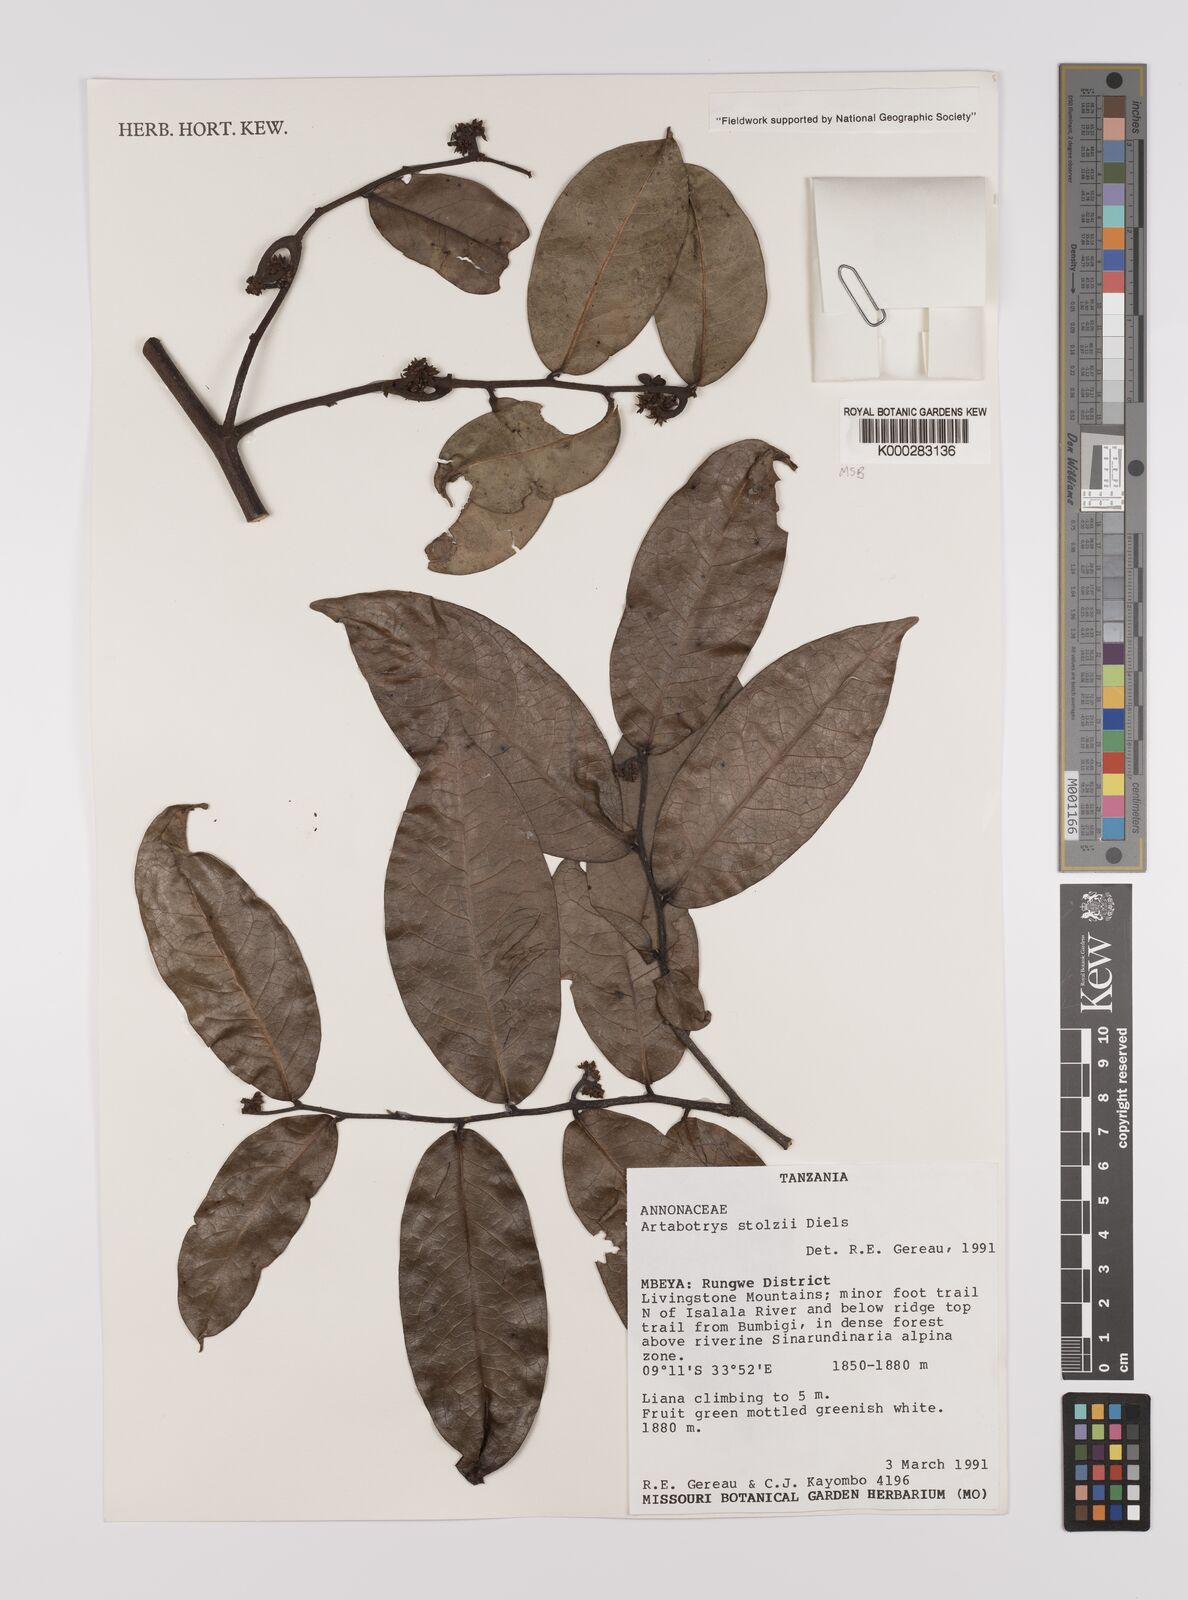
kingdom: Plantae
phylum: Tracheophyta
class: Magnoliopsida
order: Magnoliales
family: Annonaceae
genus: Artabotrys
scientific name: Artabotrys stolzii
